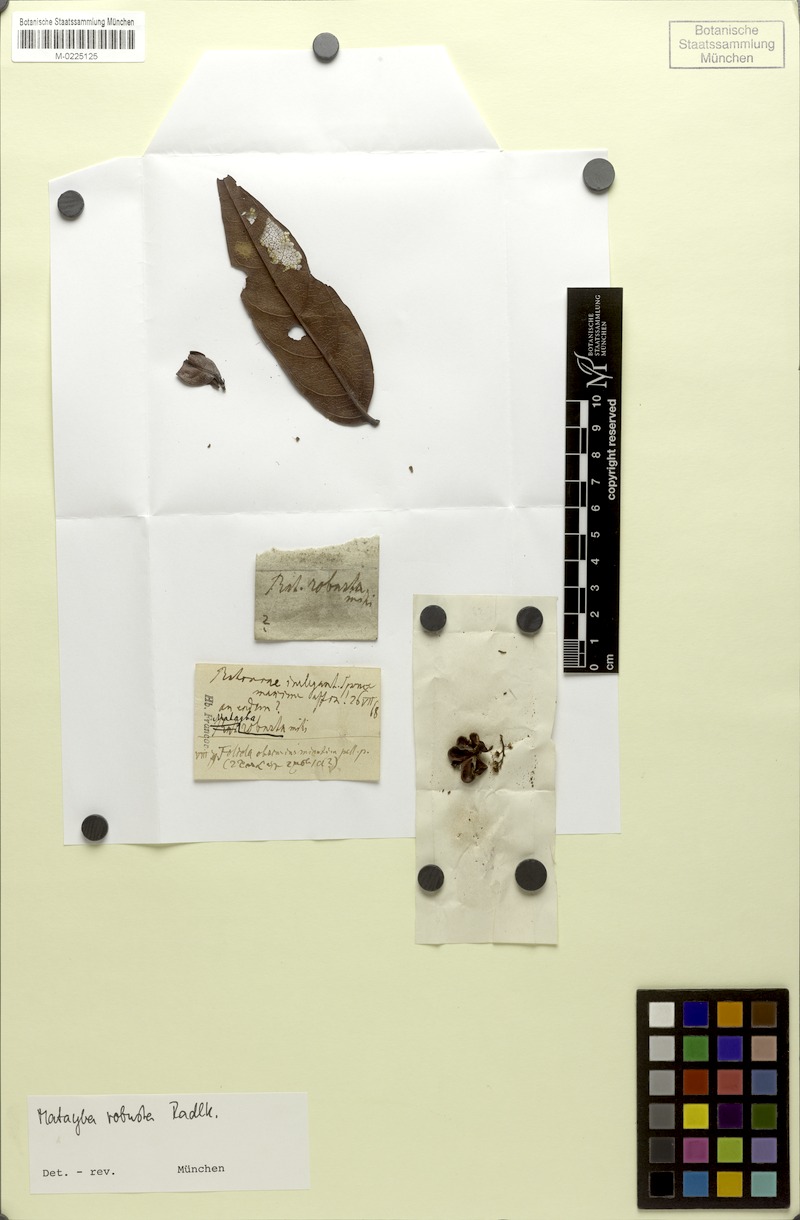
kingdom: Plantae
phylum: Tracheophyta
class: Magnoliopsida
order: Sapindales
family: Sapindaceae
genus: Matayba
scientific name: Matayba robusta
